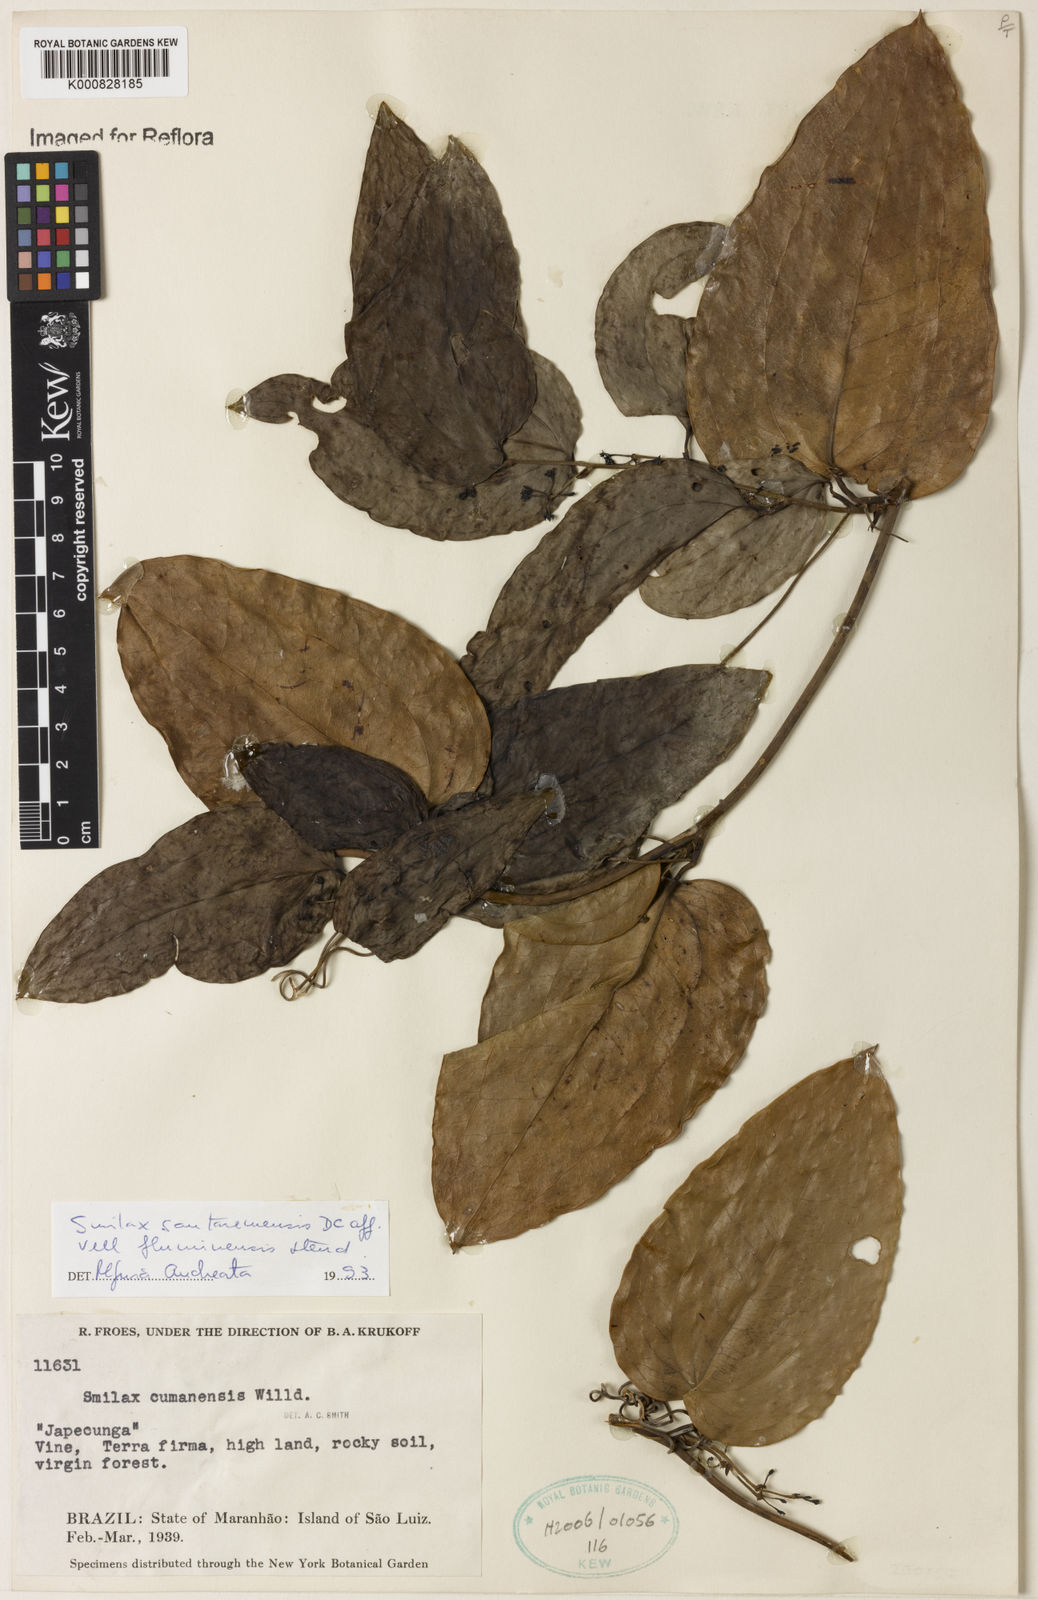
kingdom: Plantae
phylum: Tracheophyta
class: Liliopsida
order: Liliales
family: Smilacaceae
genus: Smilax
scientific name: Smilax santaremensis
